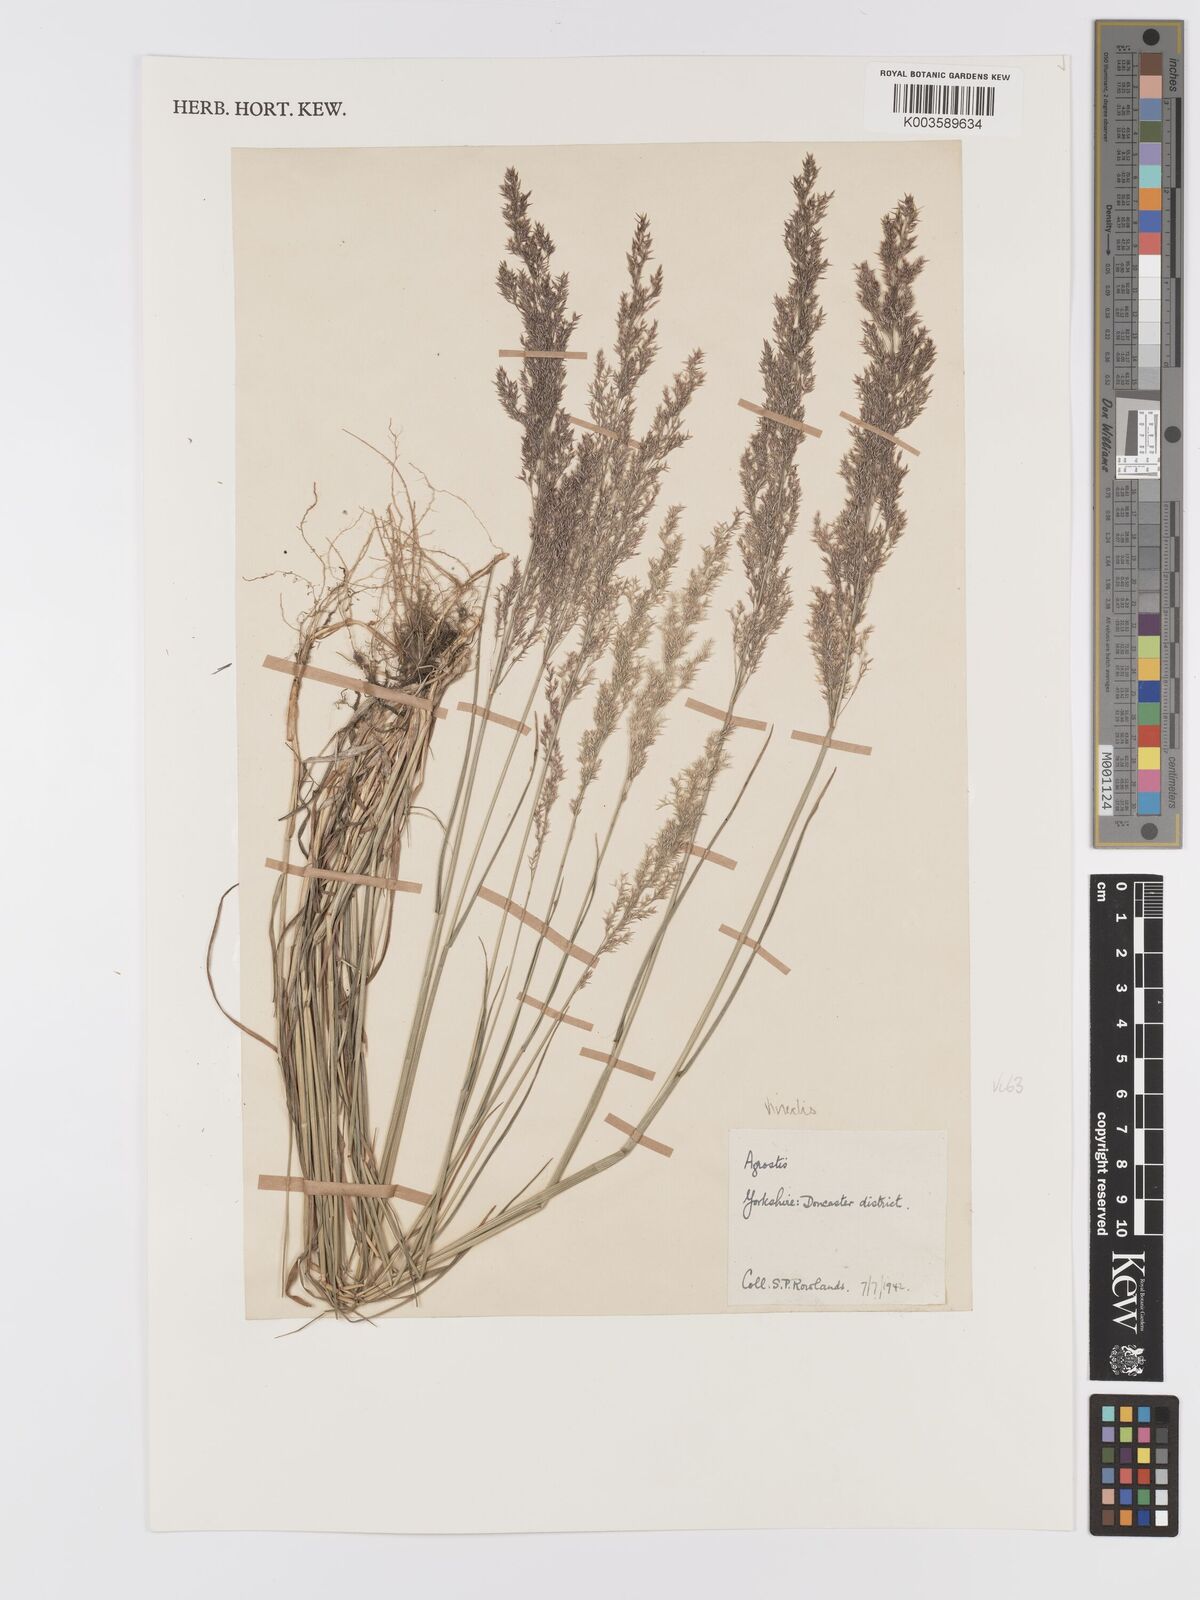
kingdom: Plantae
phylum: Tracheophyta
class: Liliopsida
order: Poales
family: Poaceae
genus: Agrostis
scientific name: Agrostis
